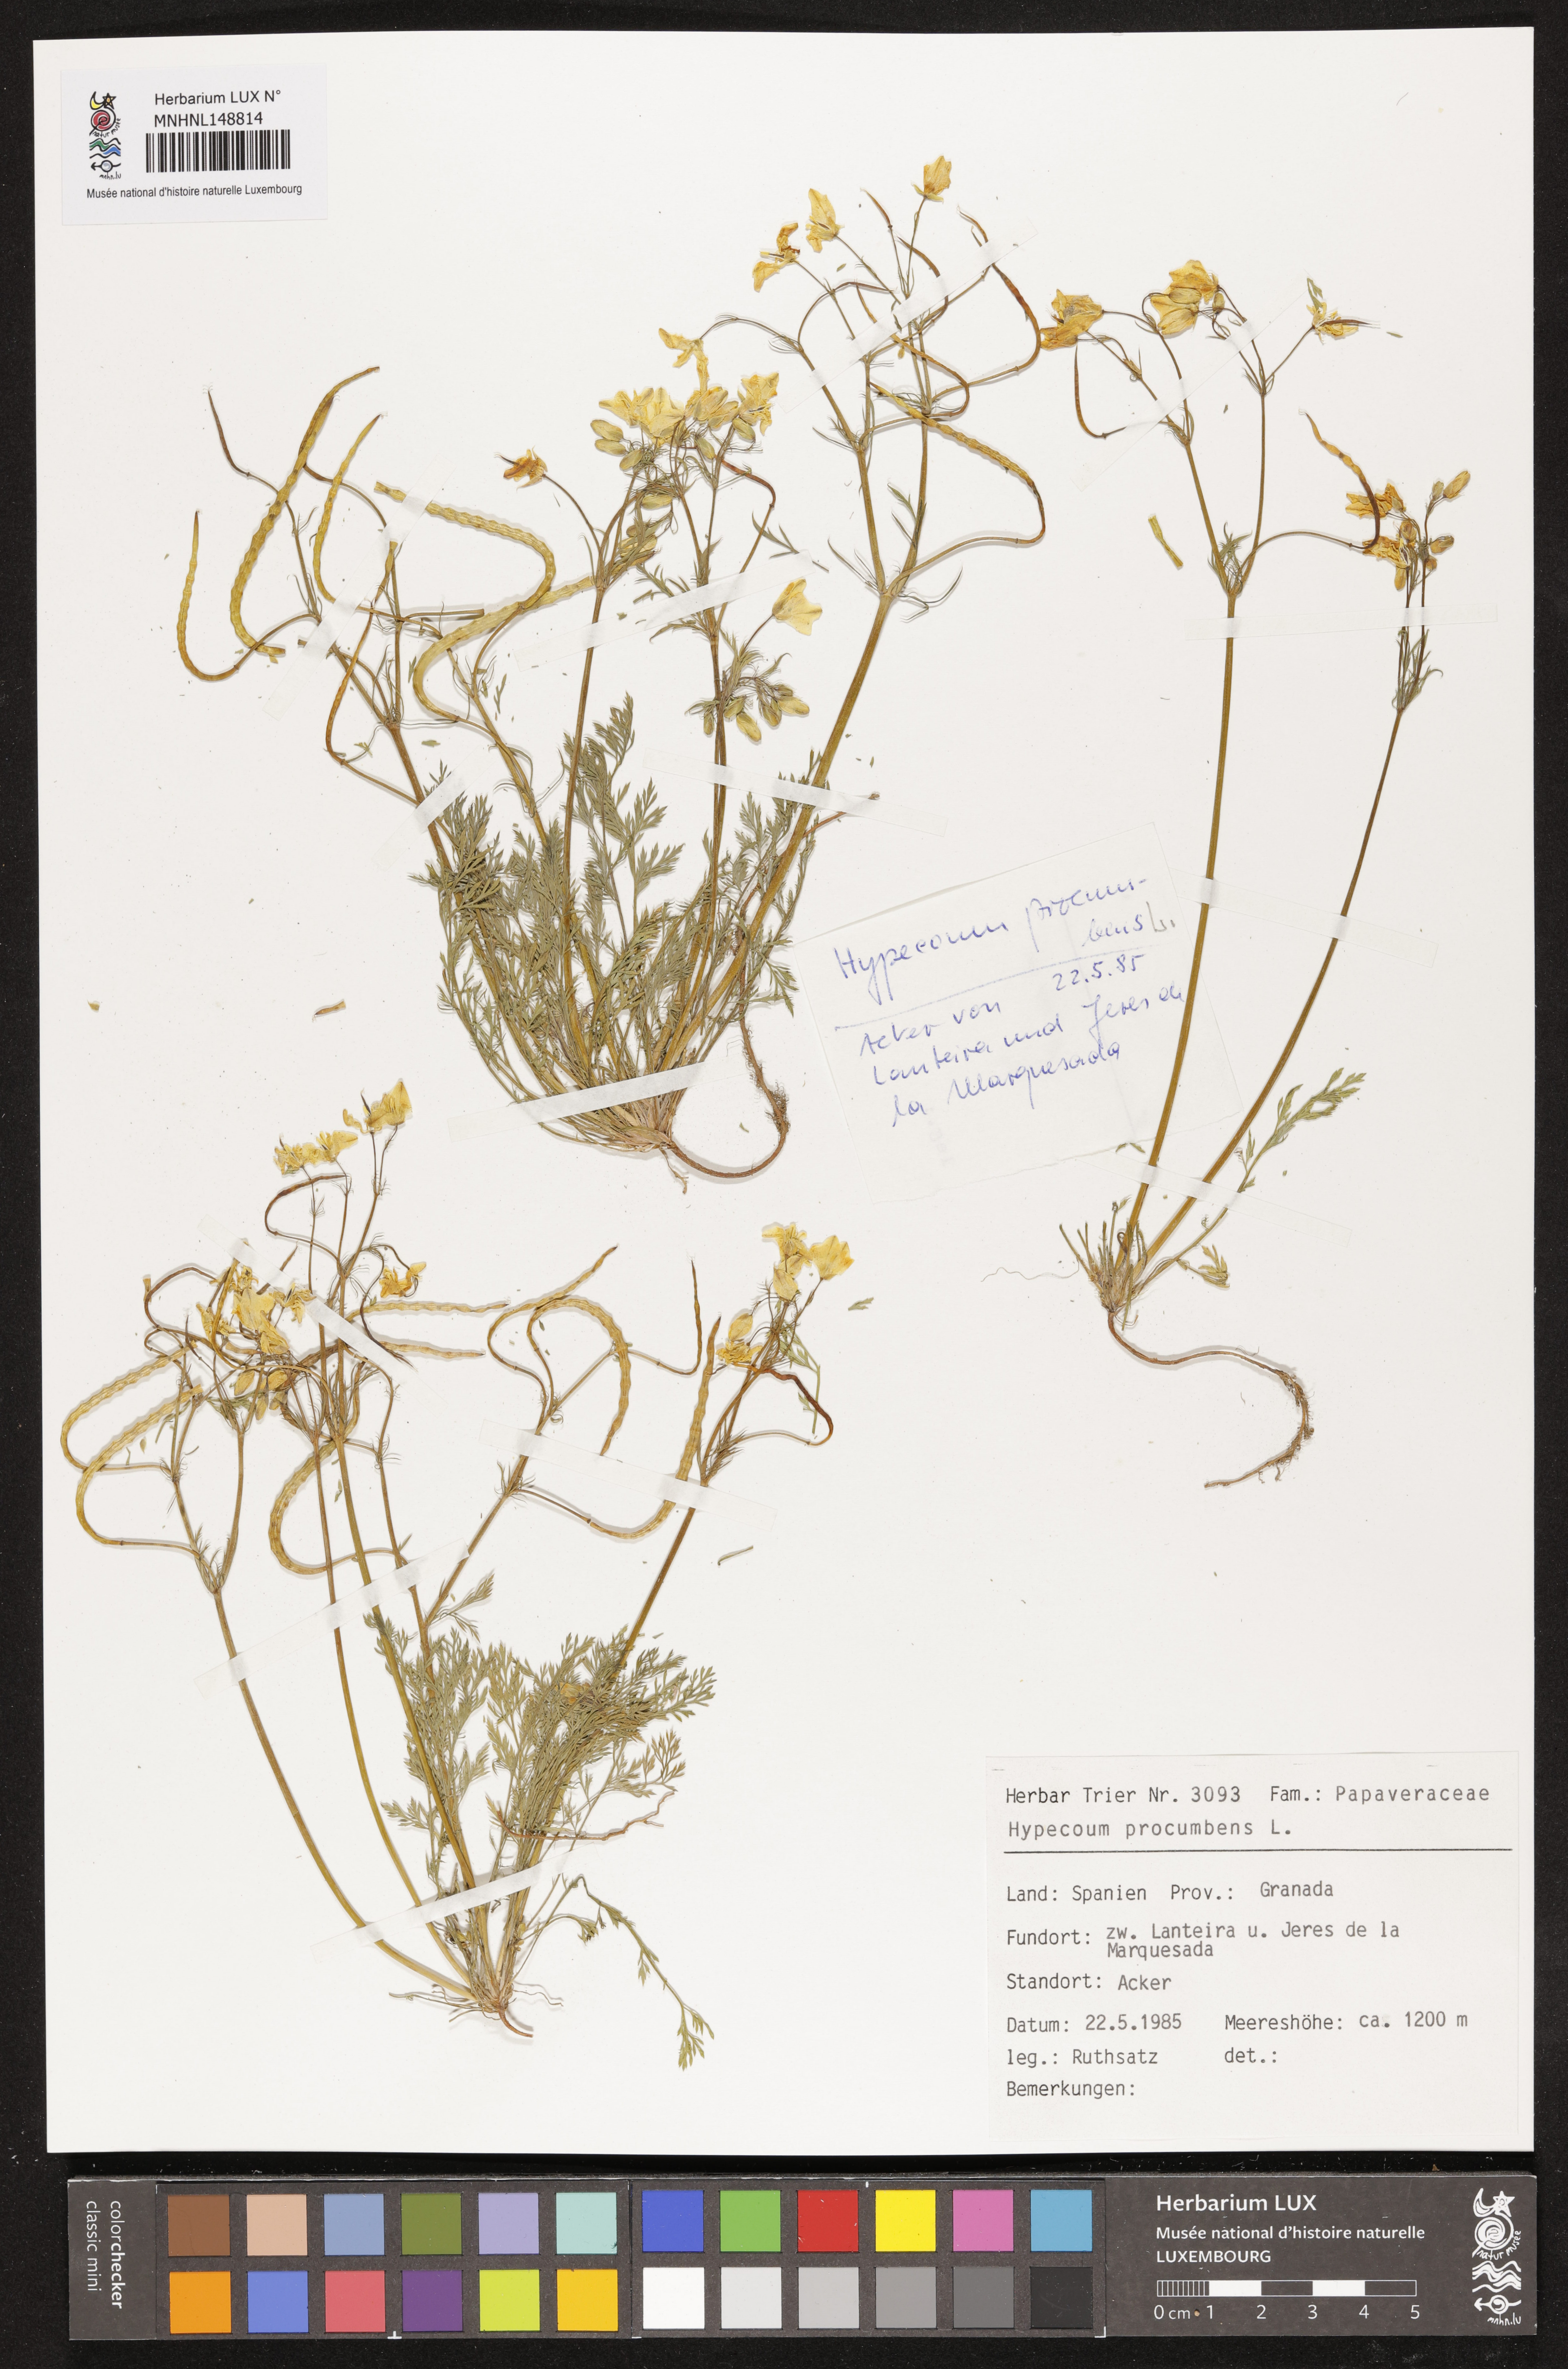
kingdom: Plantae
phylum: Tracheophyta
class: Magnoliopsida
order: Ranunculales
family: Papaveraceae
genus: Hypecoum
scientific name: Hypecoum procumbens
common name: Procumbent hypecoum
